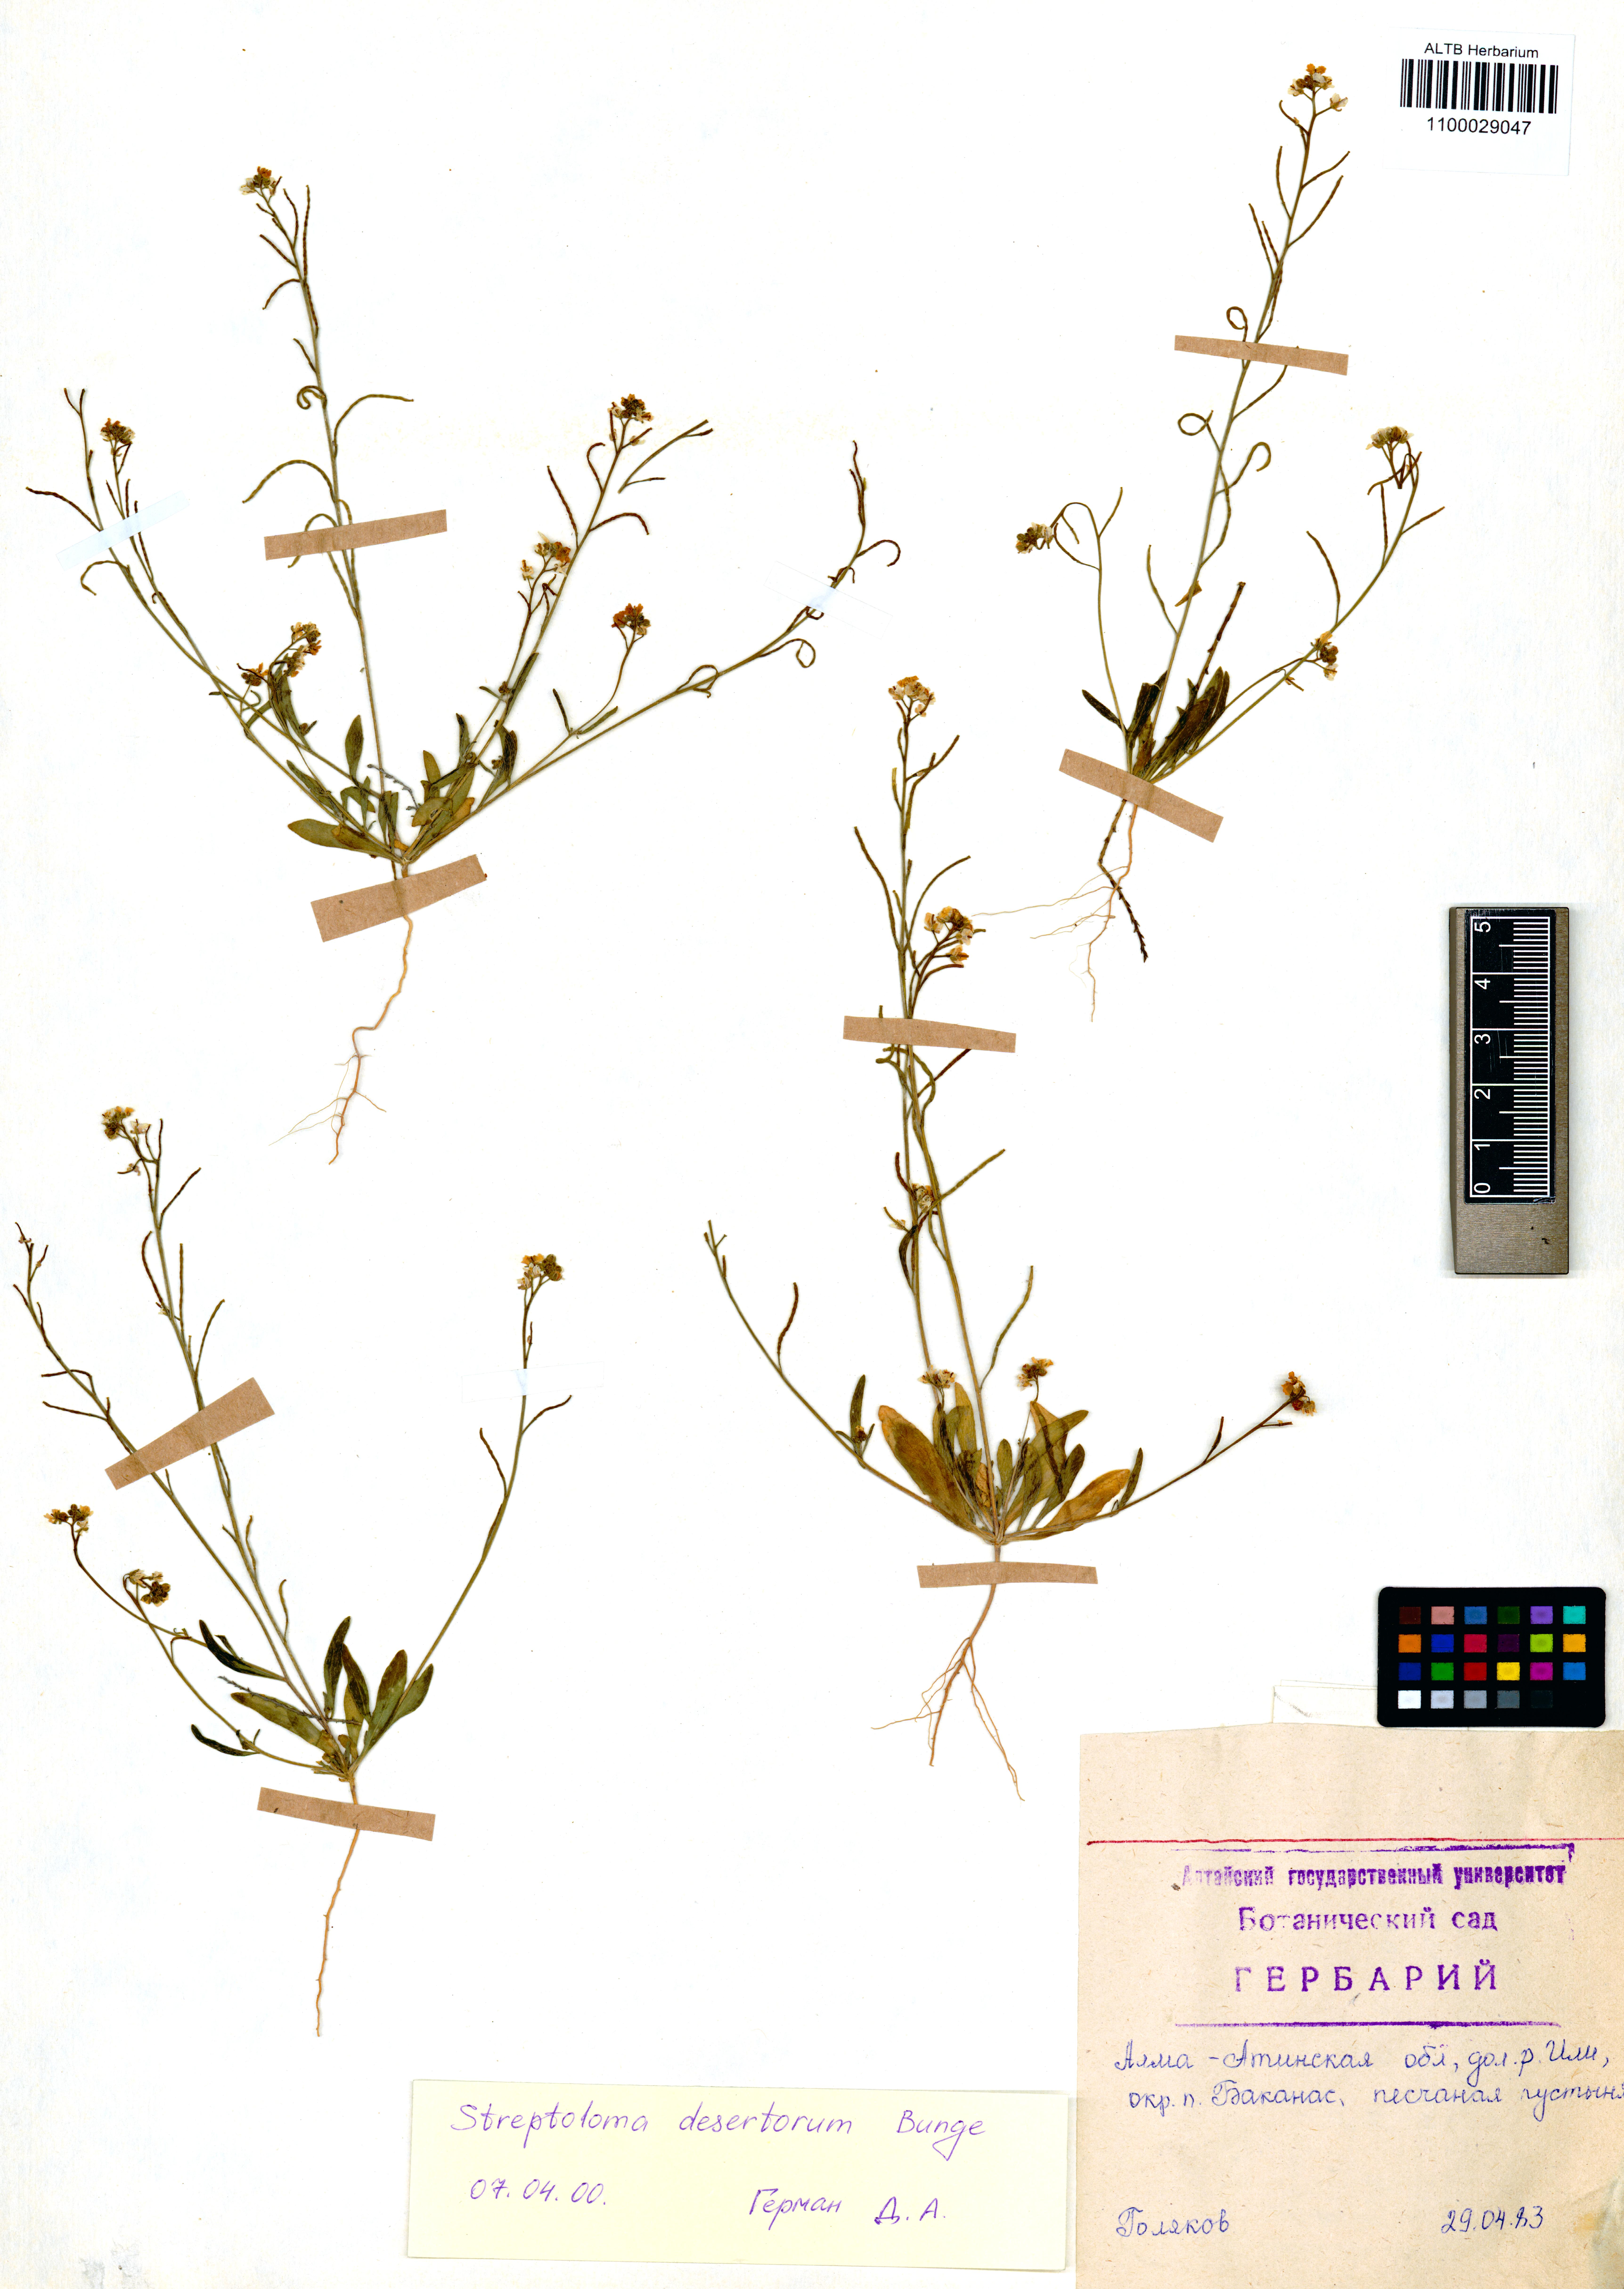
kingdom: Plantae
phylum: Tracheophyta
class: Magnoliopsida
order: Brassicales
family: Brassicaceae
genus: Streptoloma
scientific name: Streptoloma desertorum
